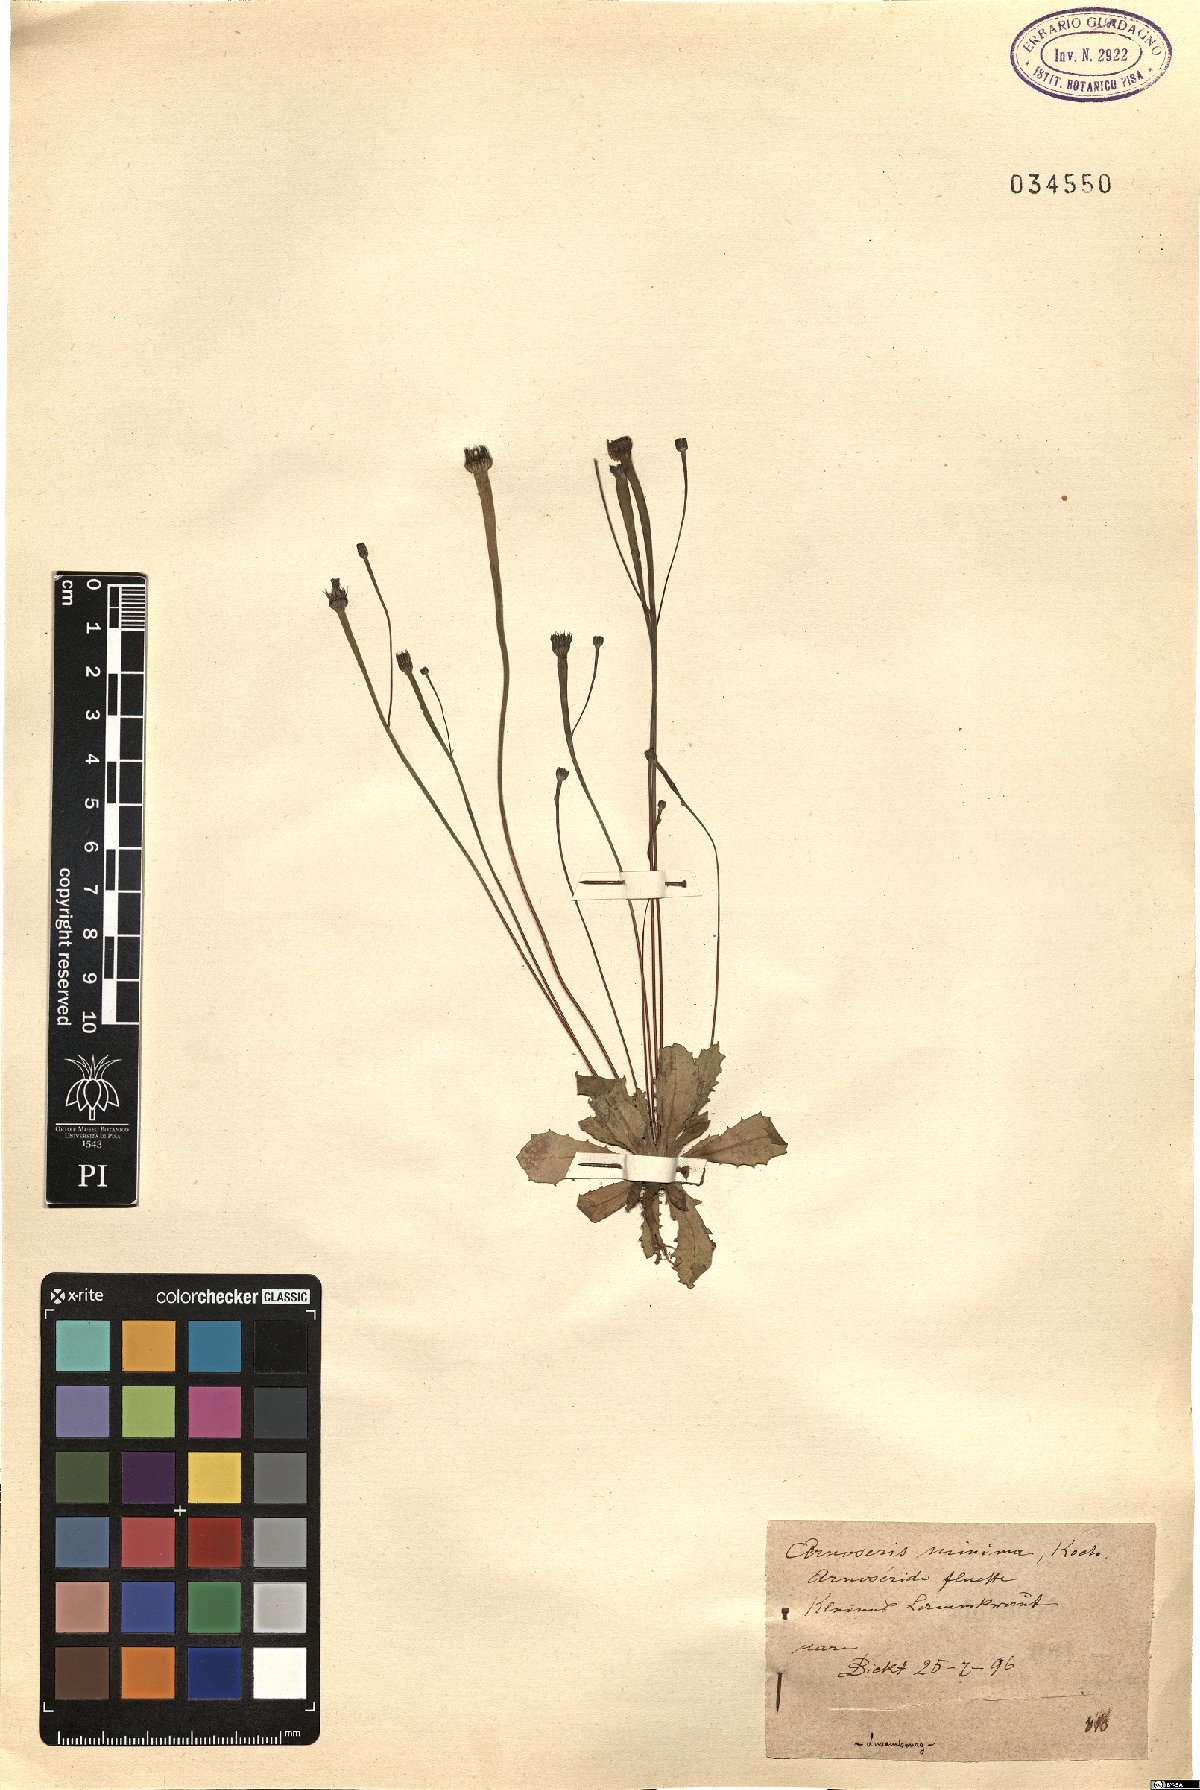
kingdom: Plantae
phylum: Tracheophyta
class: Magnoliopsida
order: Asterales
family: Asteraceae
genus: Arnoseris
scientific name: Arnoseris minima
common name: Lamb's succory
